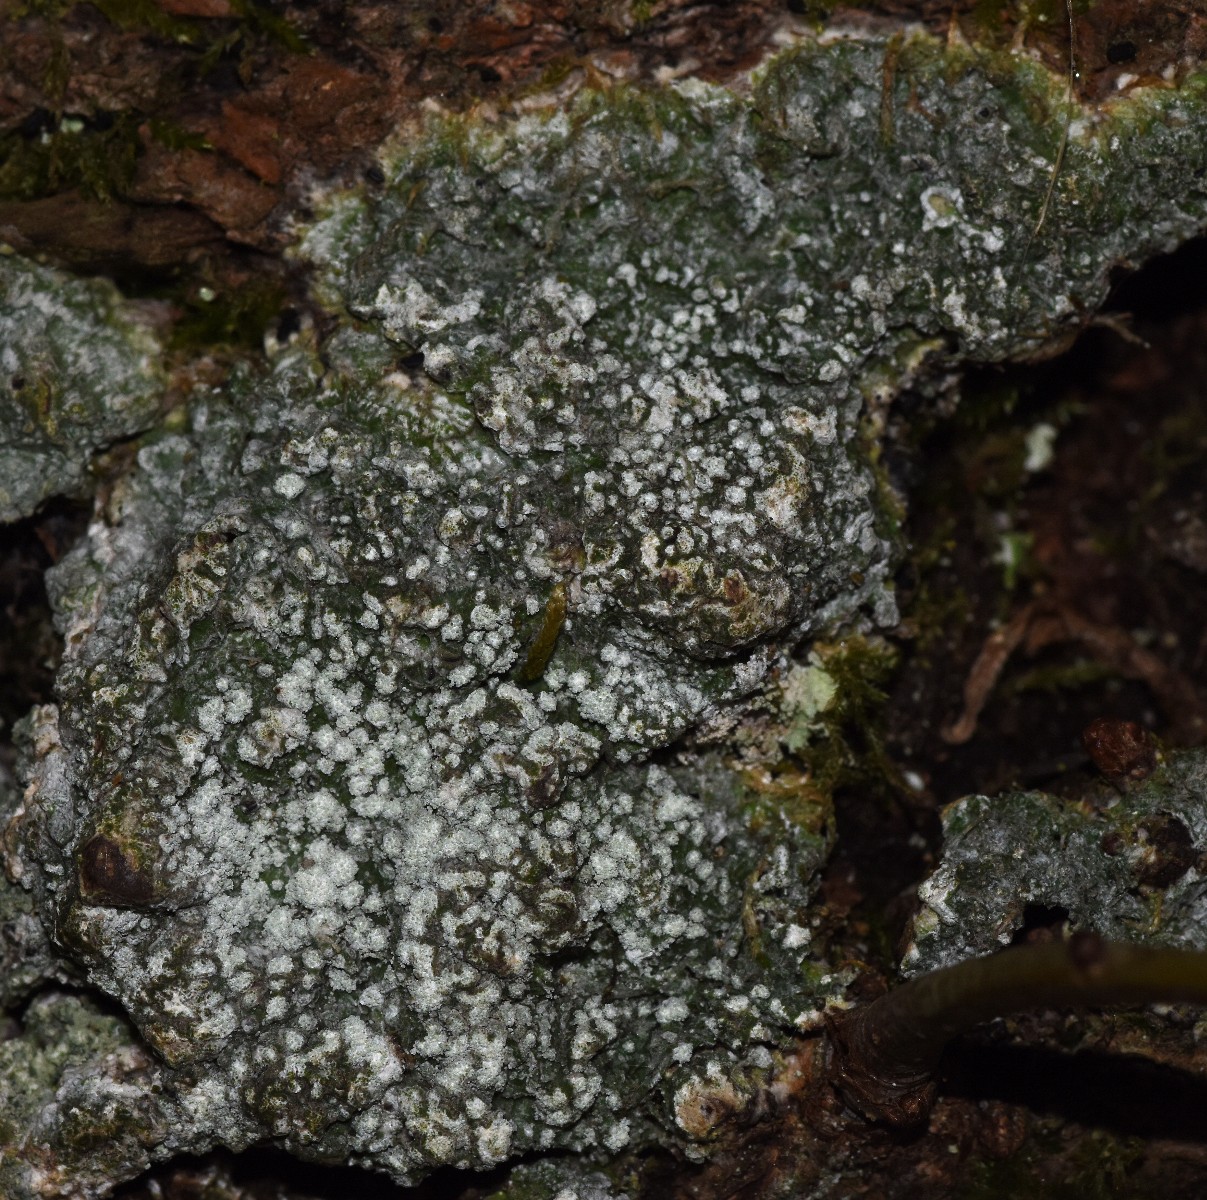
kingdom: Fungi
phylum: Ascomycota
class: Lecanoromycetes
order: Pertusariales
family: Pertusariaceae
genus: Lepra
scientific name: Lepra amara
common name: bitter prikvortelav
